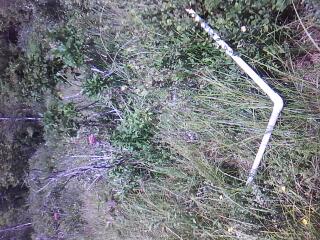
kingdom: Plantae
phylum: Tracheophyta
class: Polypodiopsida
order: Polypodiales
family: Thelypteridaceae
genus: Thelypteris
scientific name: Thelypteris palustris
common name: Marsh fern
